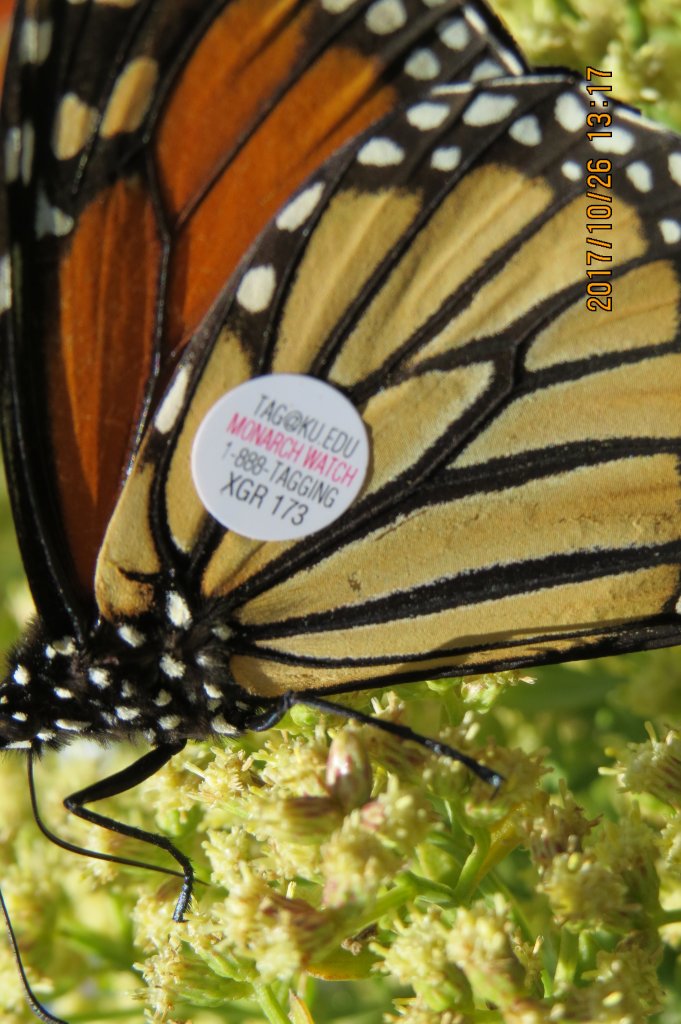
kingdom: Animalia
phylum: Arthropoda
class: Insecta
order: Lepidoptera
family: Nymphalidae
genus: Danaus
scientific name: Danaus plexippus
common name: Monarch
